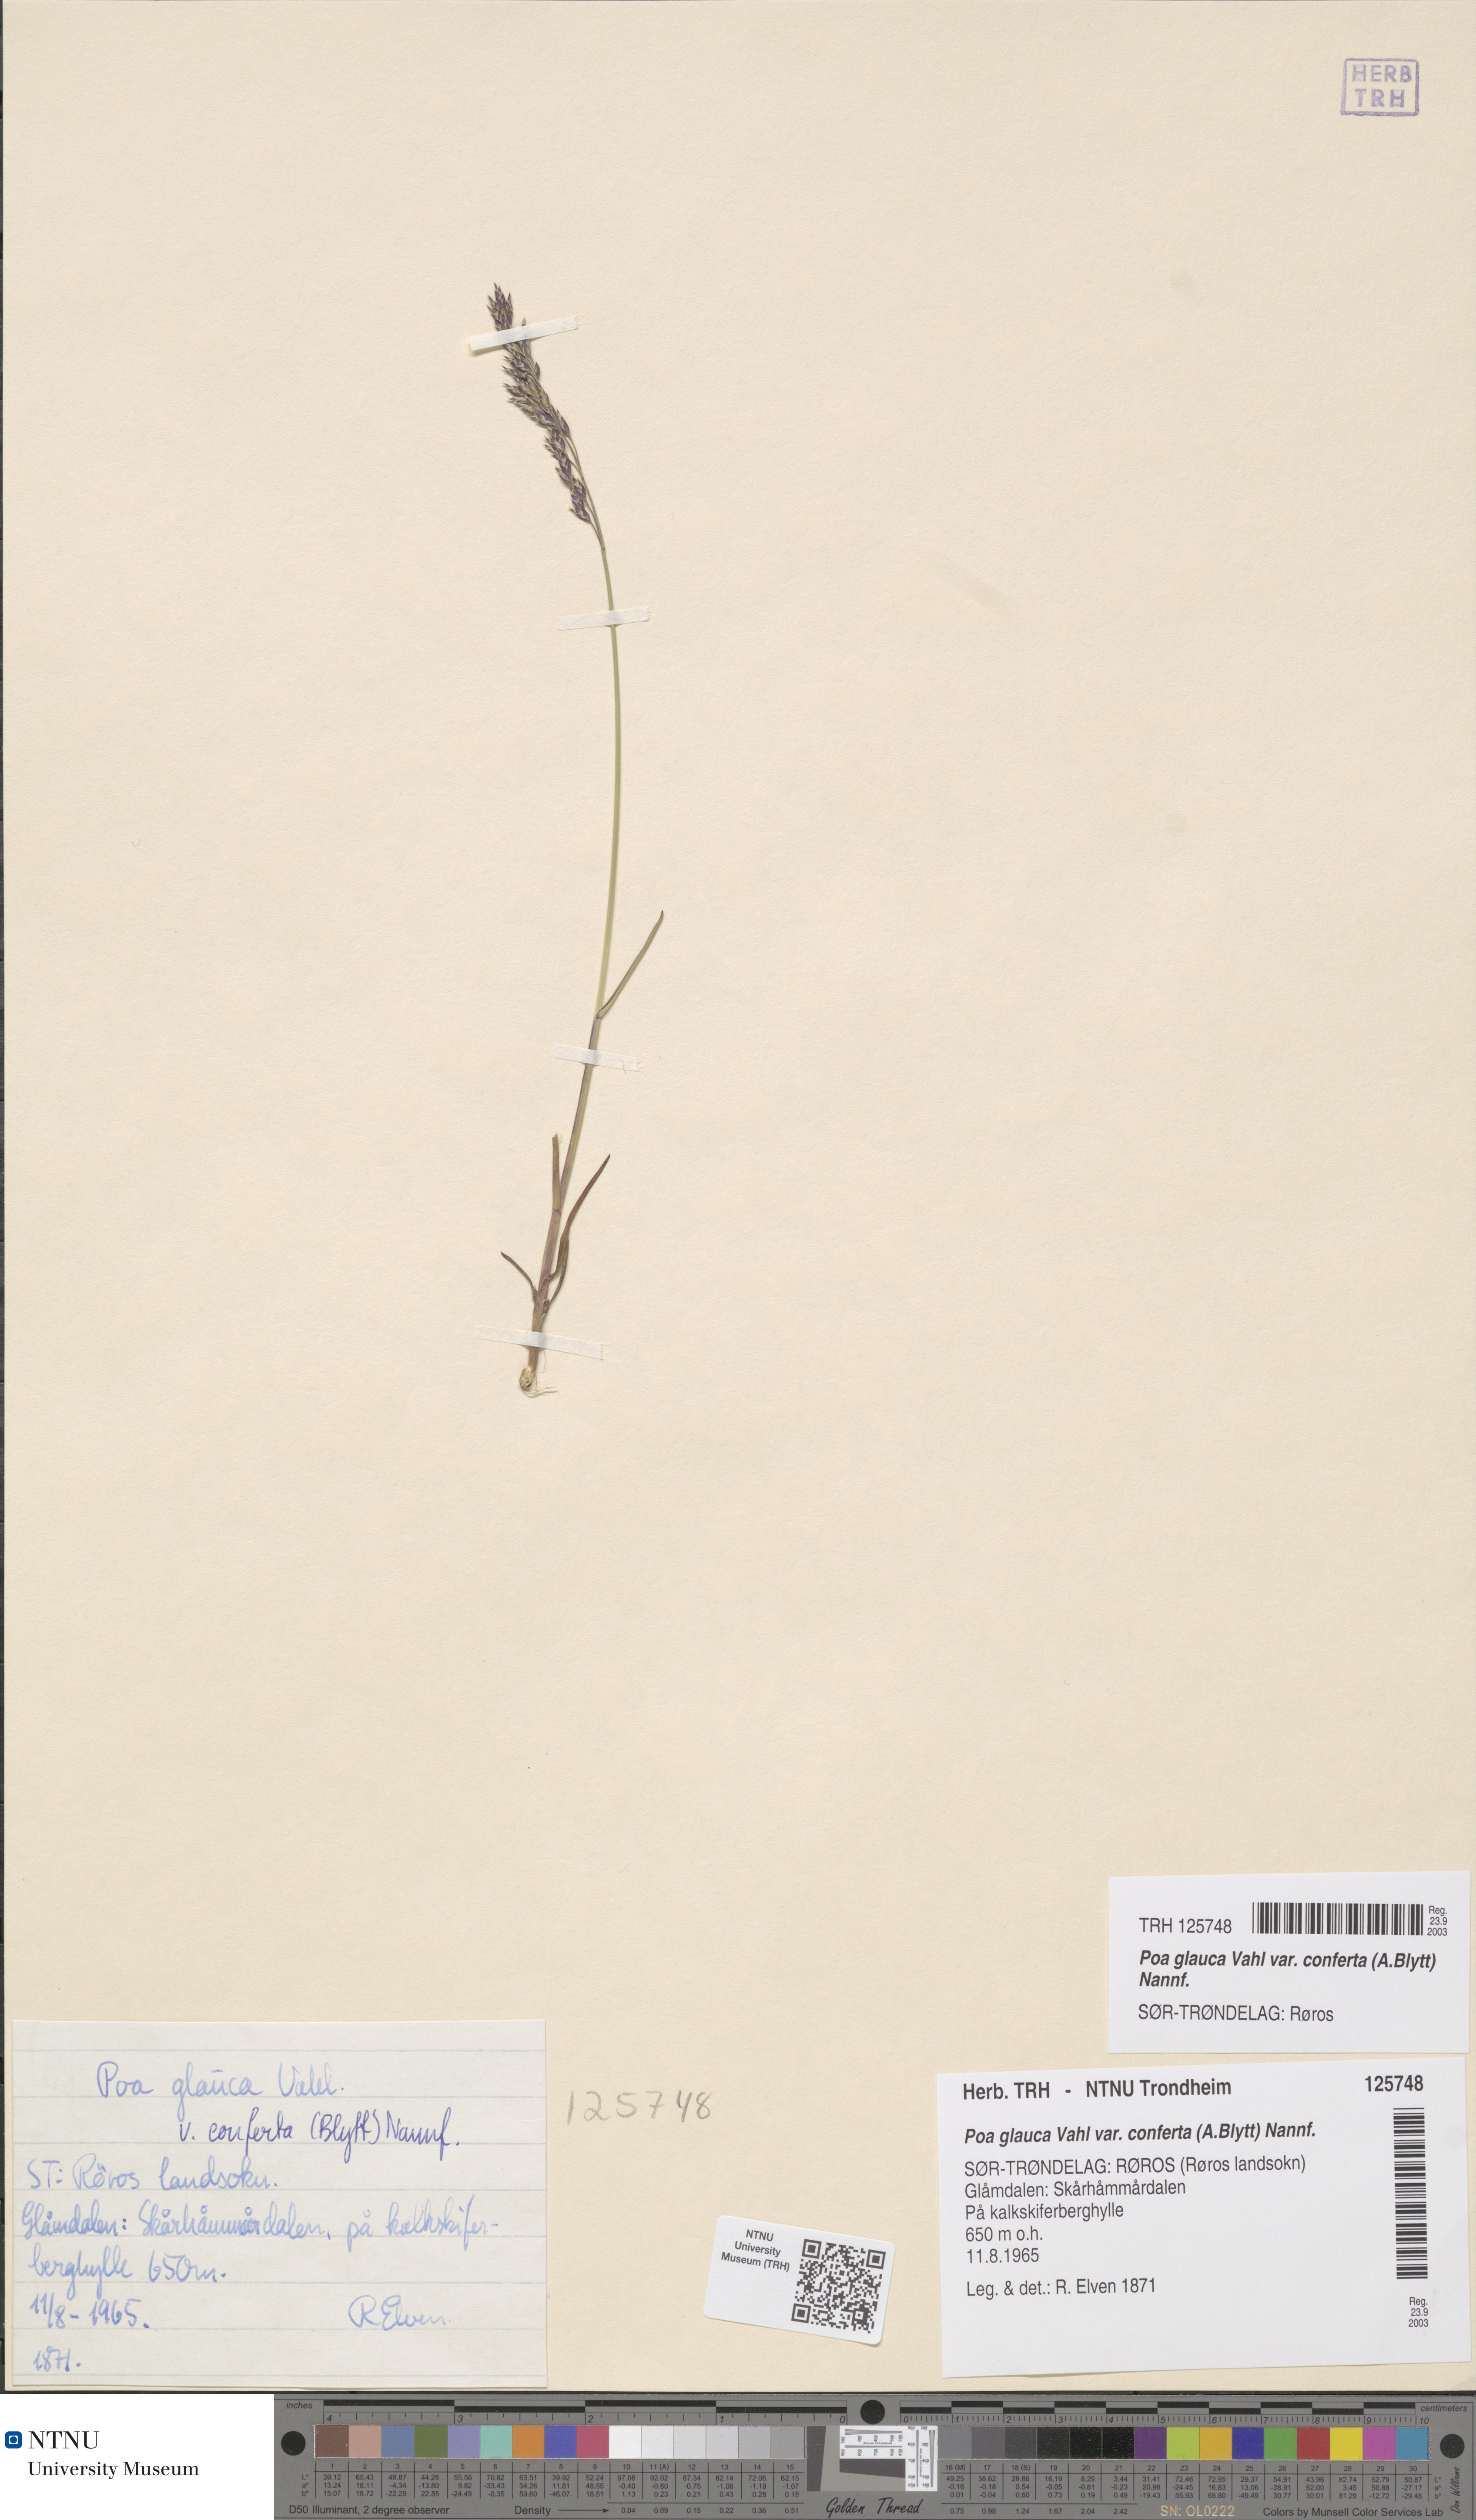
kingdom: Plantae
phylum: Tracheophyta
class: Liliopsida
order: Poales
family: Poaceae
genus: Poa
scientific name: Poa glauca
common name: Glaucous bluegrass
